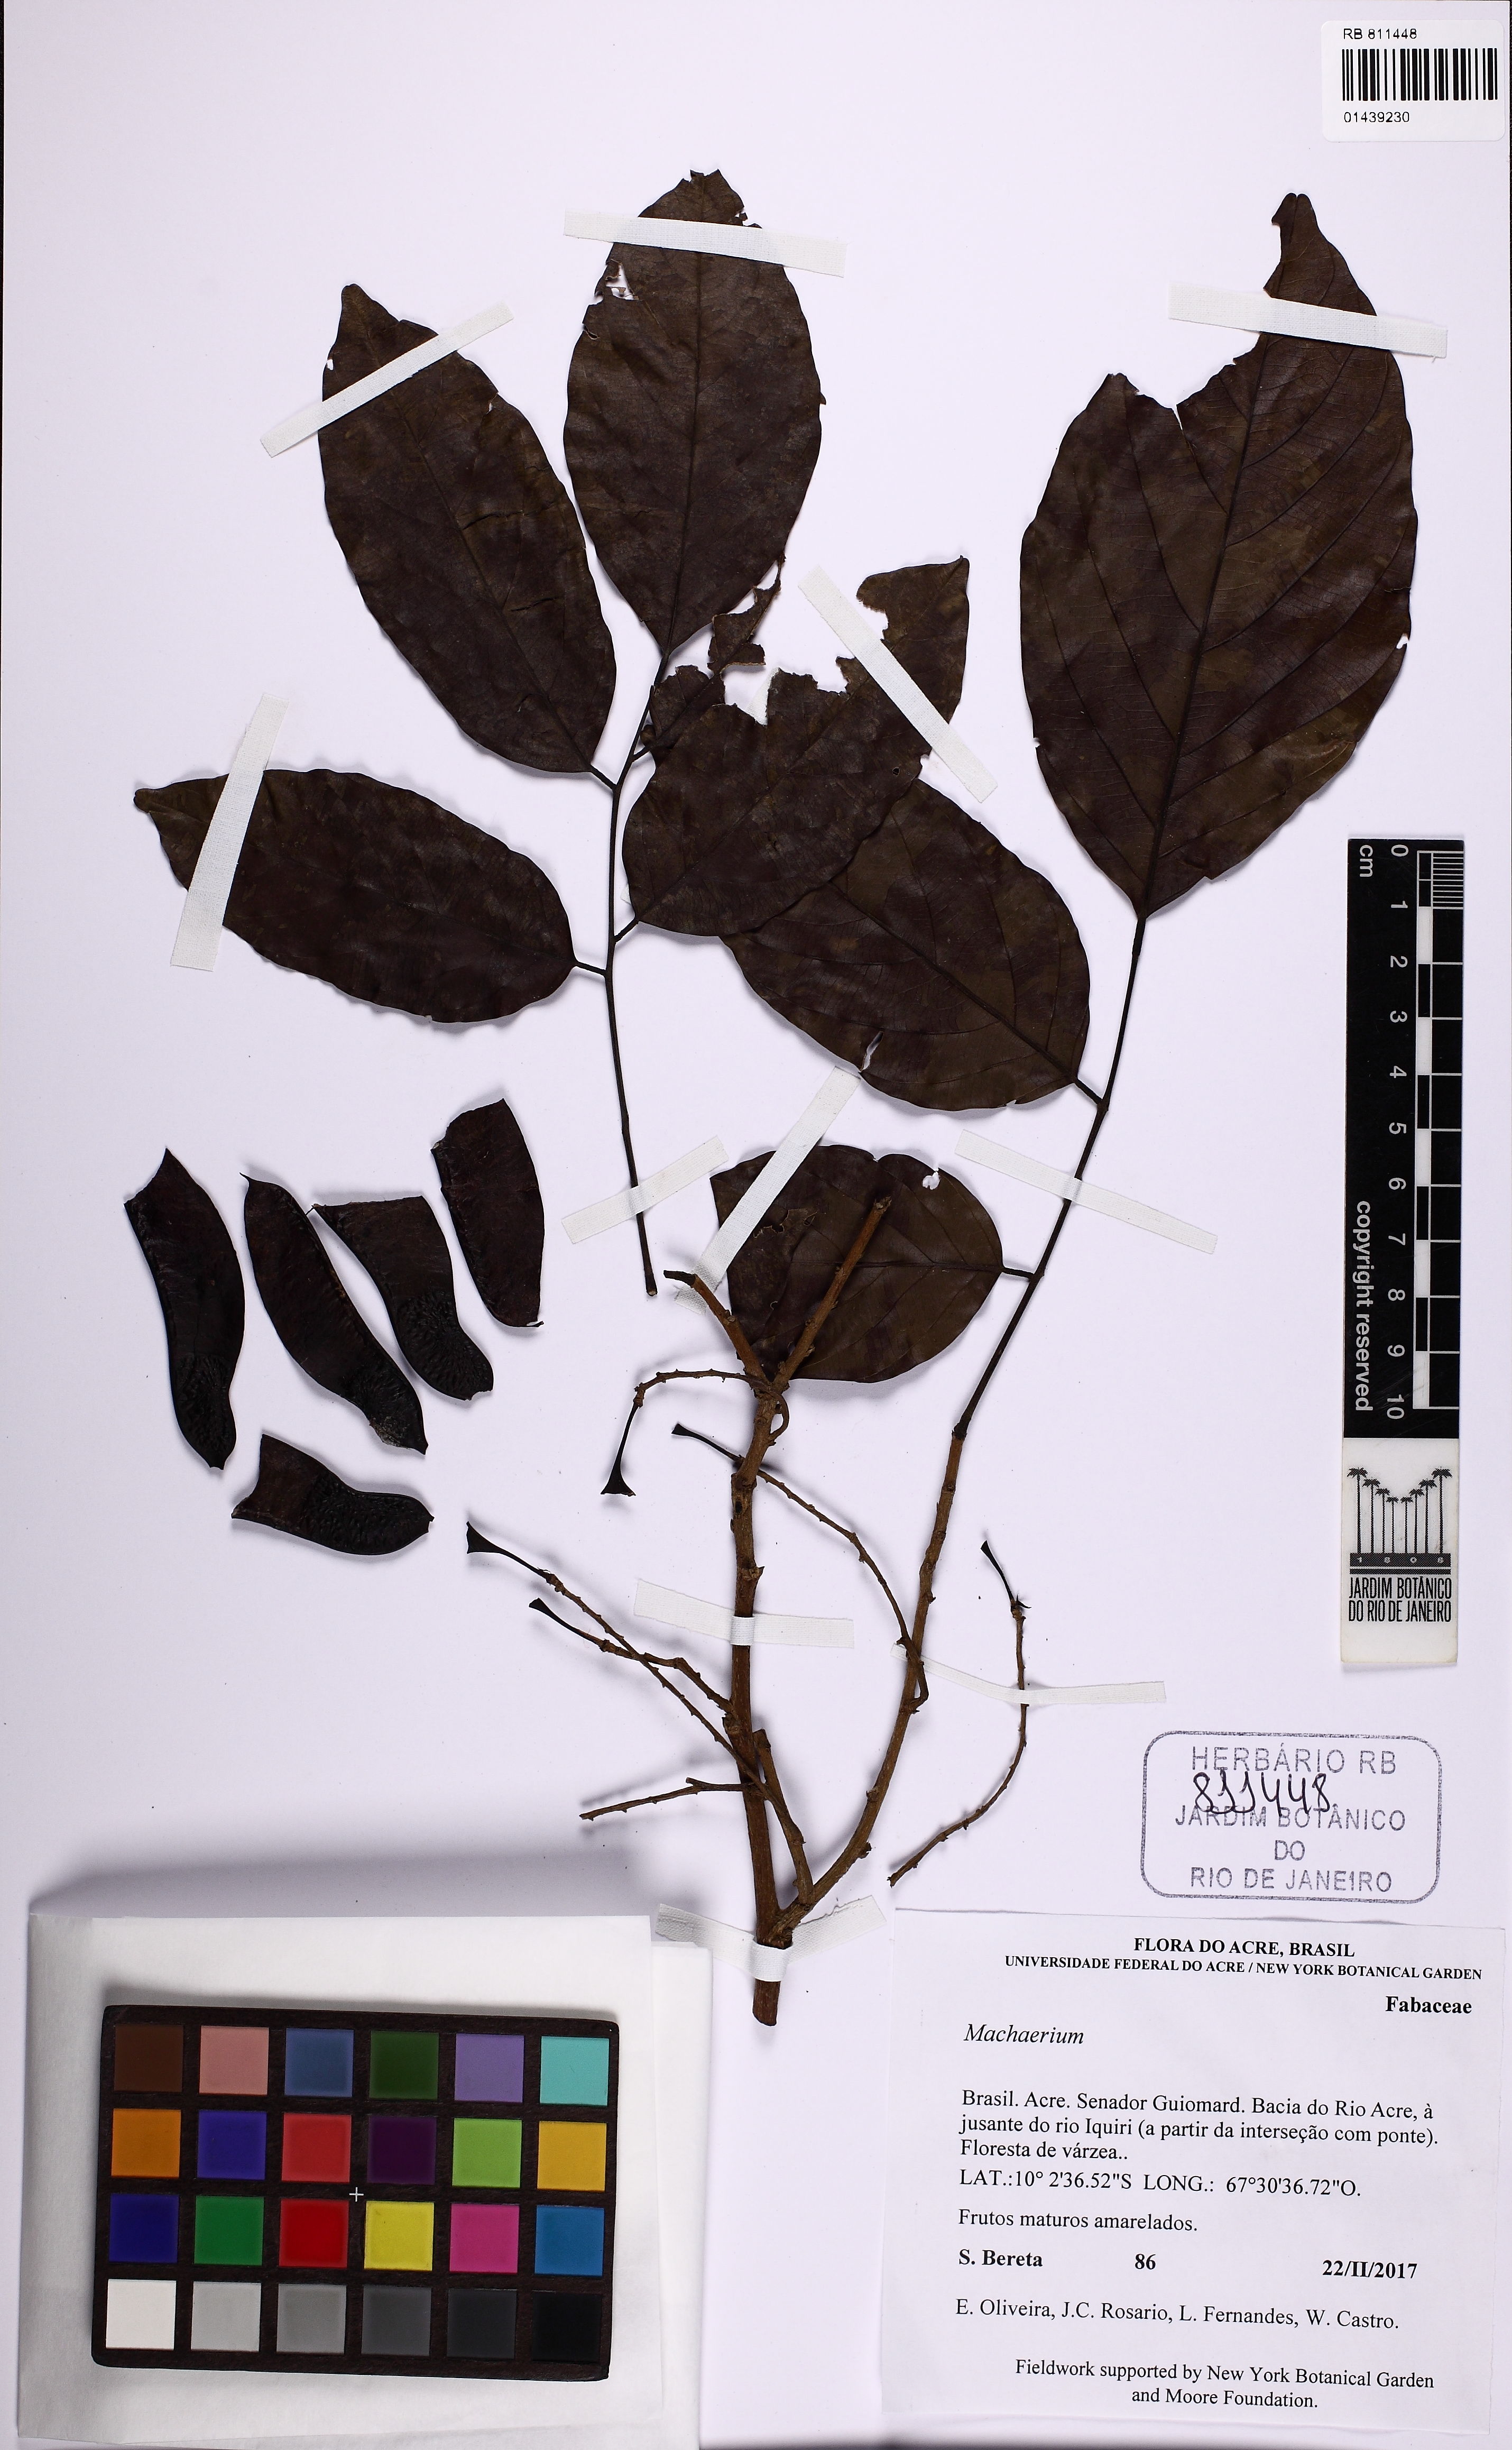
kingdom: Plantae
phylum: Tracheophyta
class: Magnoliopsida
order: Fabales
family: Fabaceae
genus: Machaerium
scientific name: Machaerium
